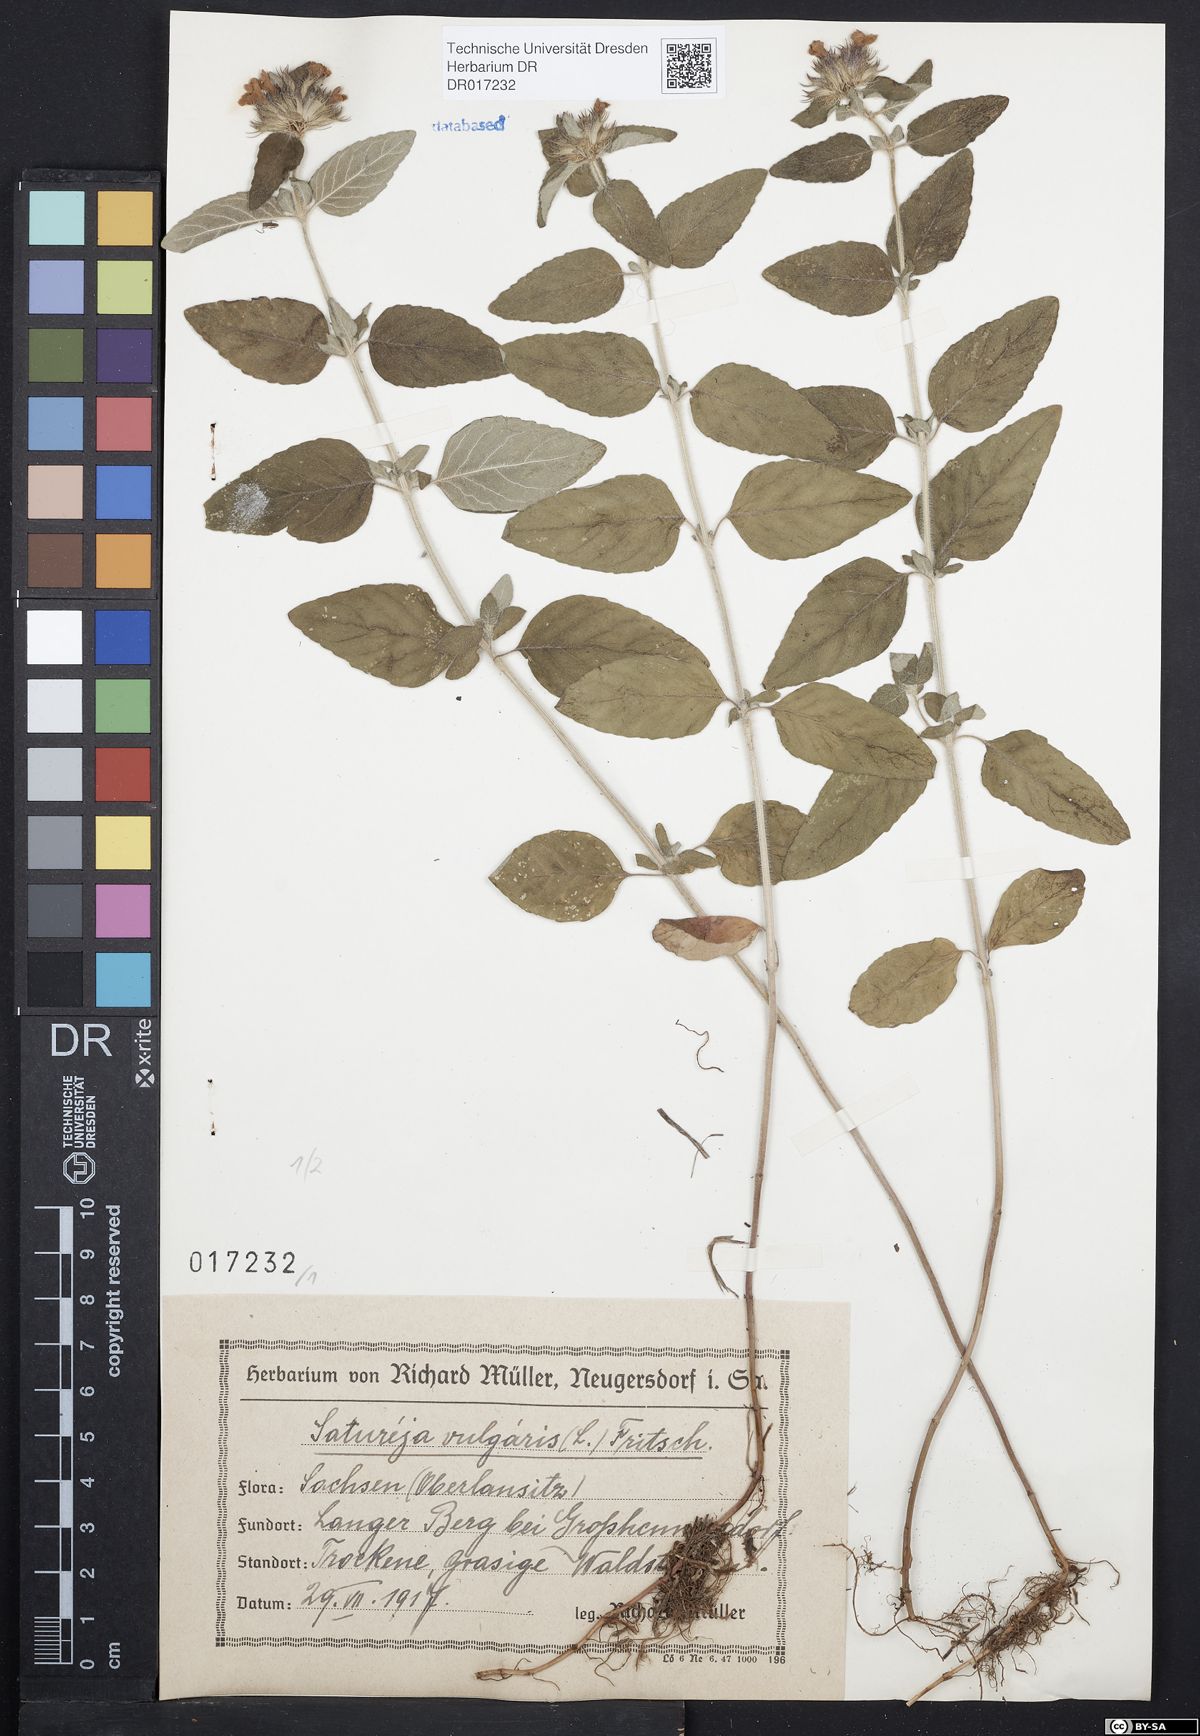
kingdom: Plantae
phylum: Tracheophyta
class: Magnoliopsida
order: Lamiales
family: Lamiaceae
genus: Clinopodium
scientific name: Clinopodium vulgare
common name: Wild basil
